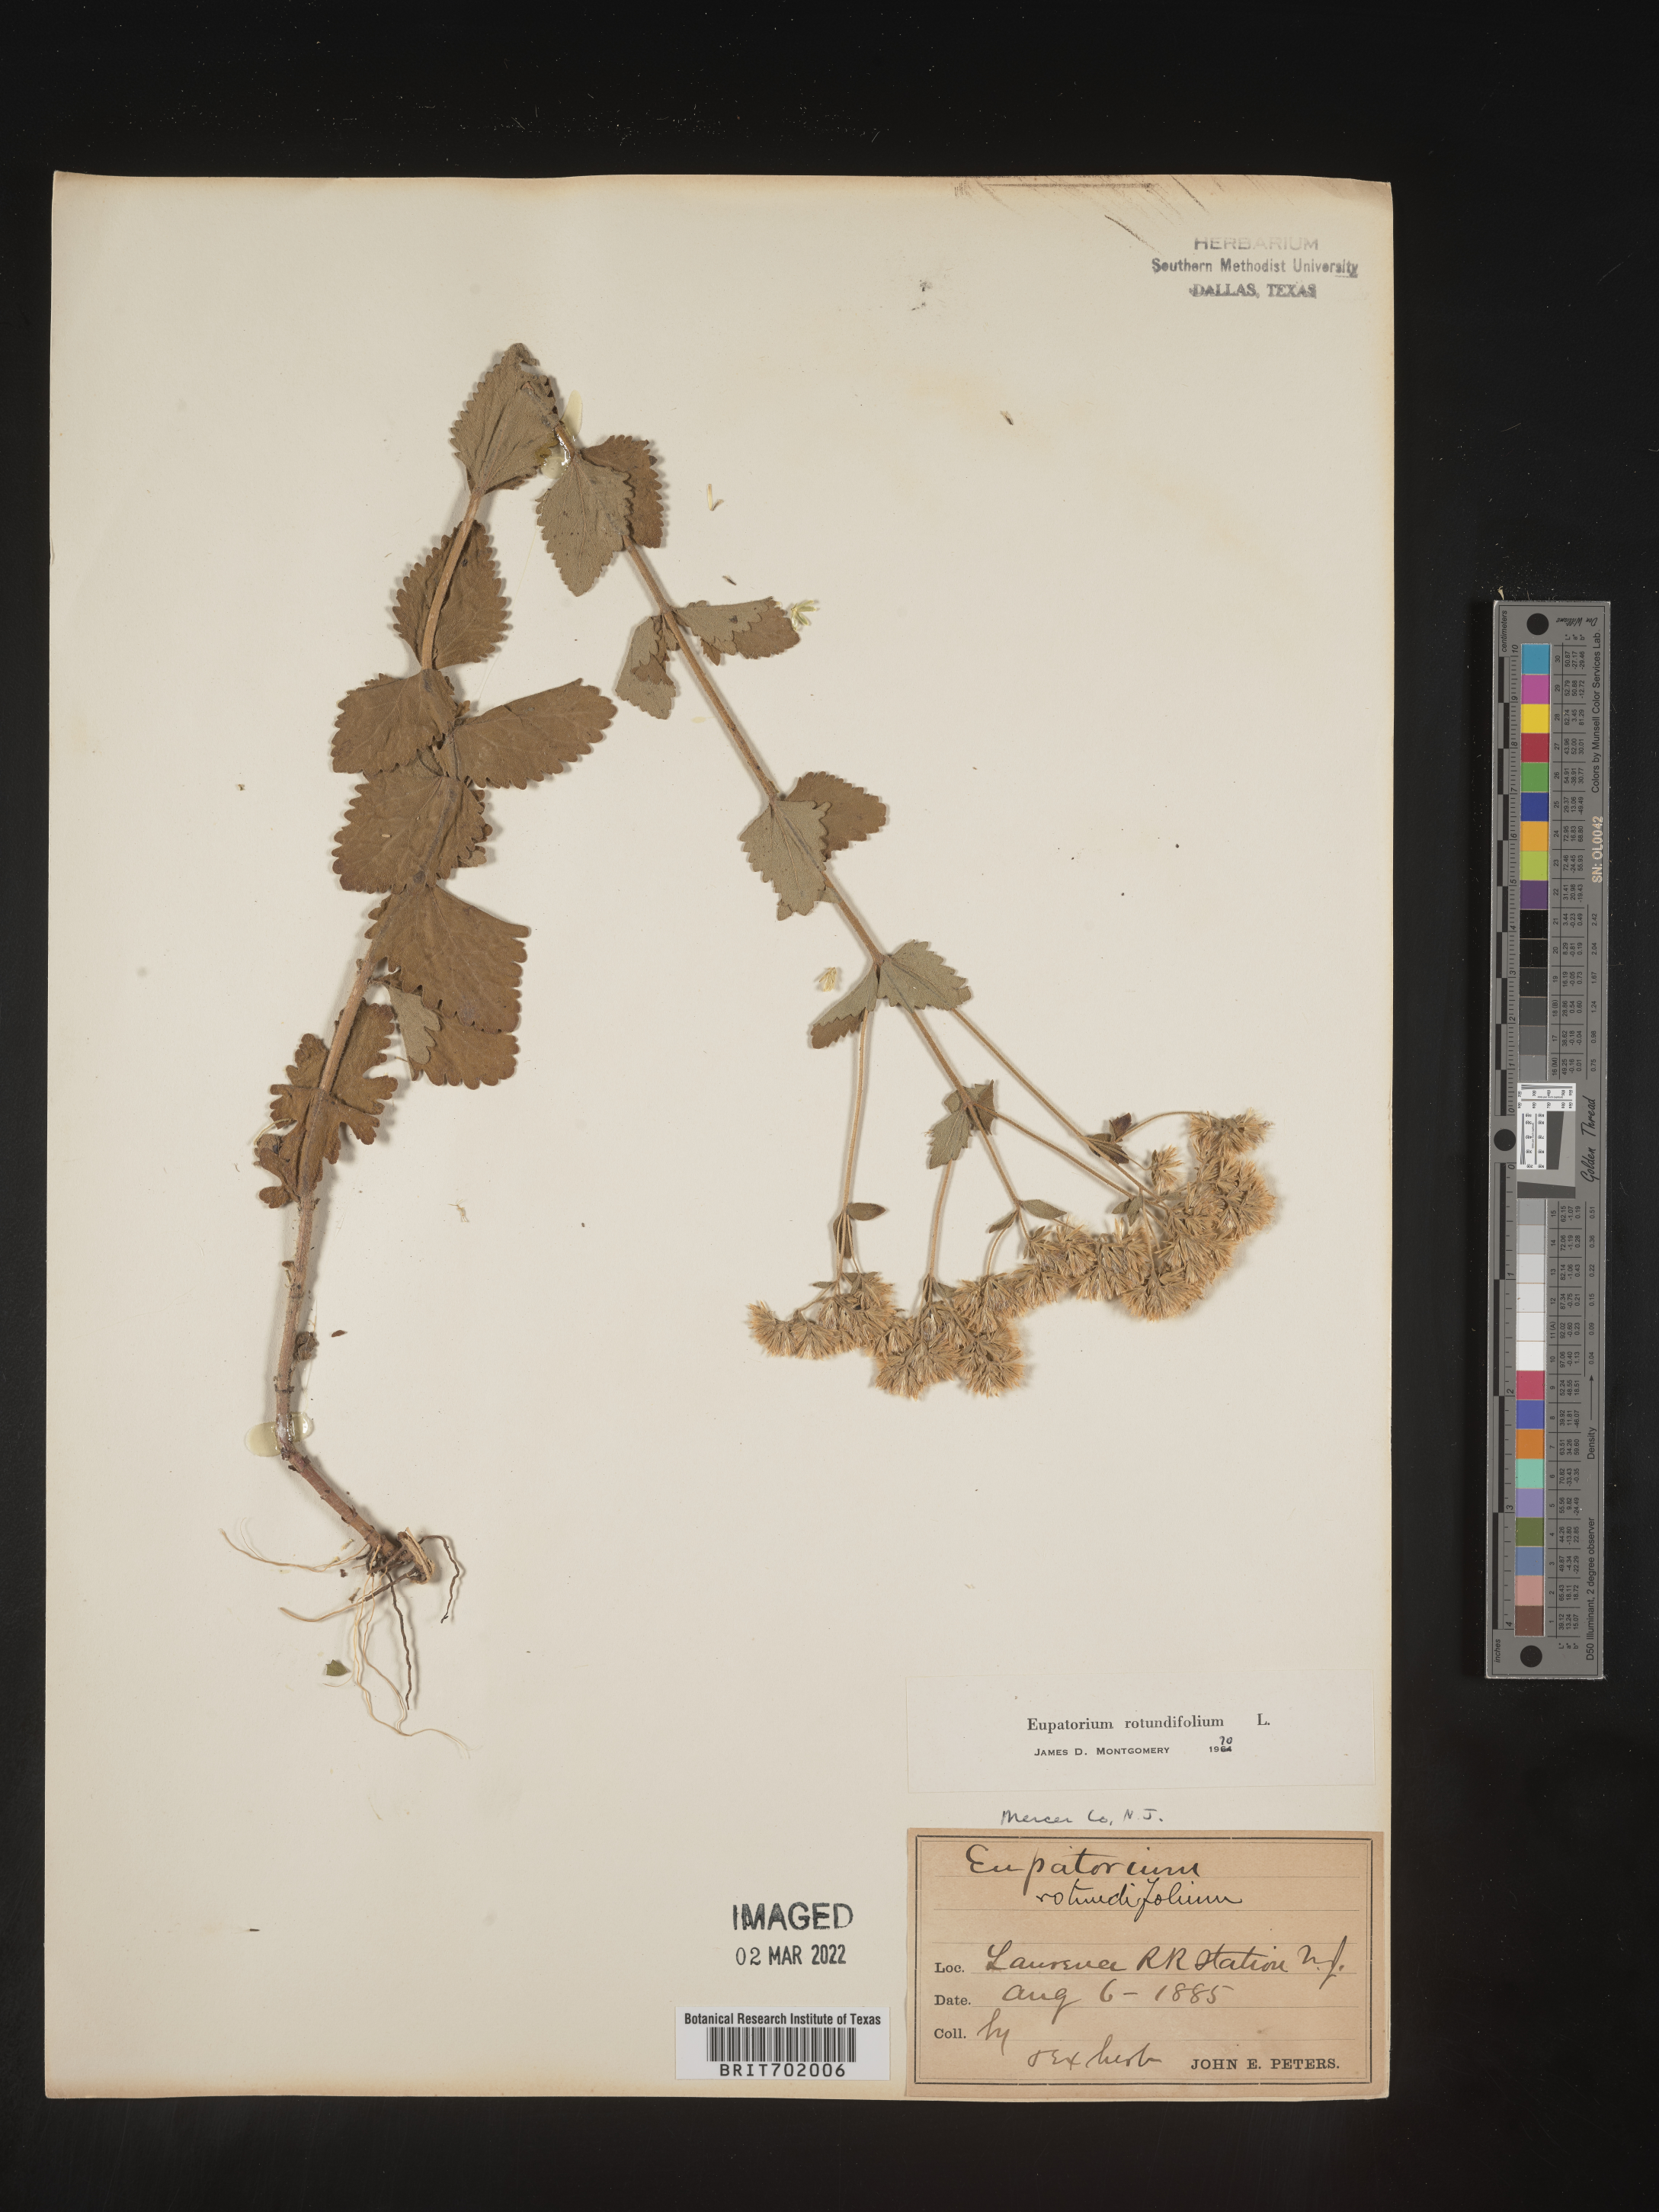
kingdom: Plantae
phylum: Tracheophyta
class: Magnoliopsida
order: Asterales
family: Asteraceae
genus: Eupatorium
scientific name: Eupatorium rotundifolium
